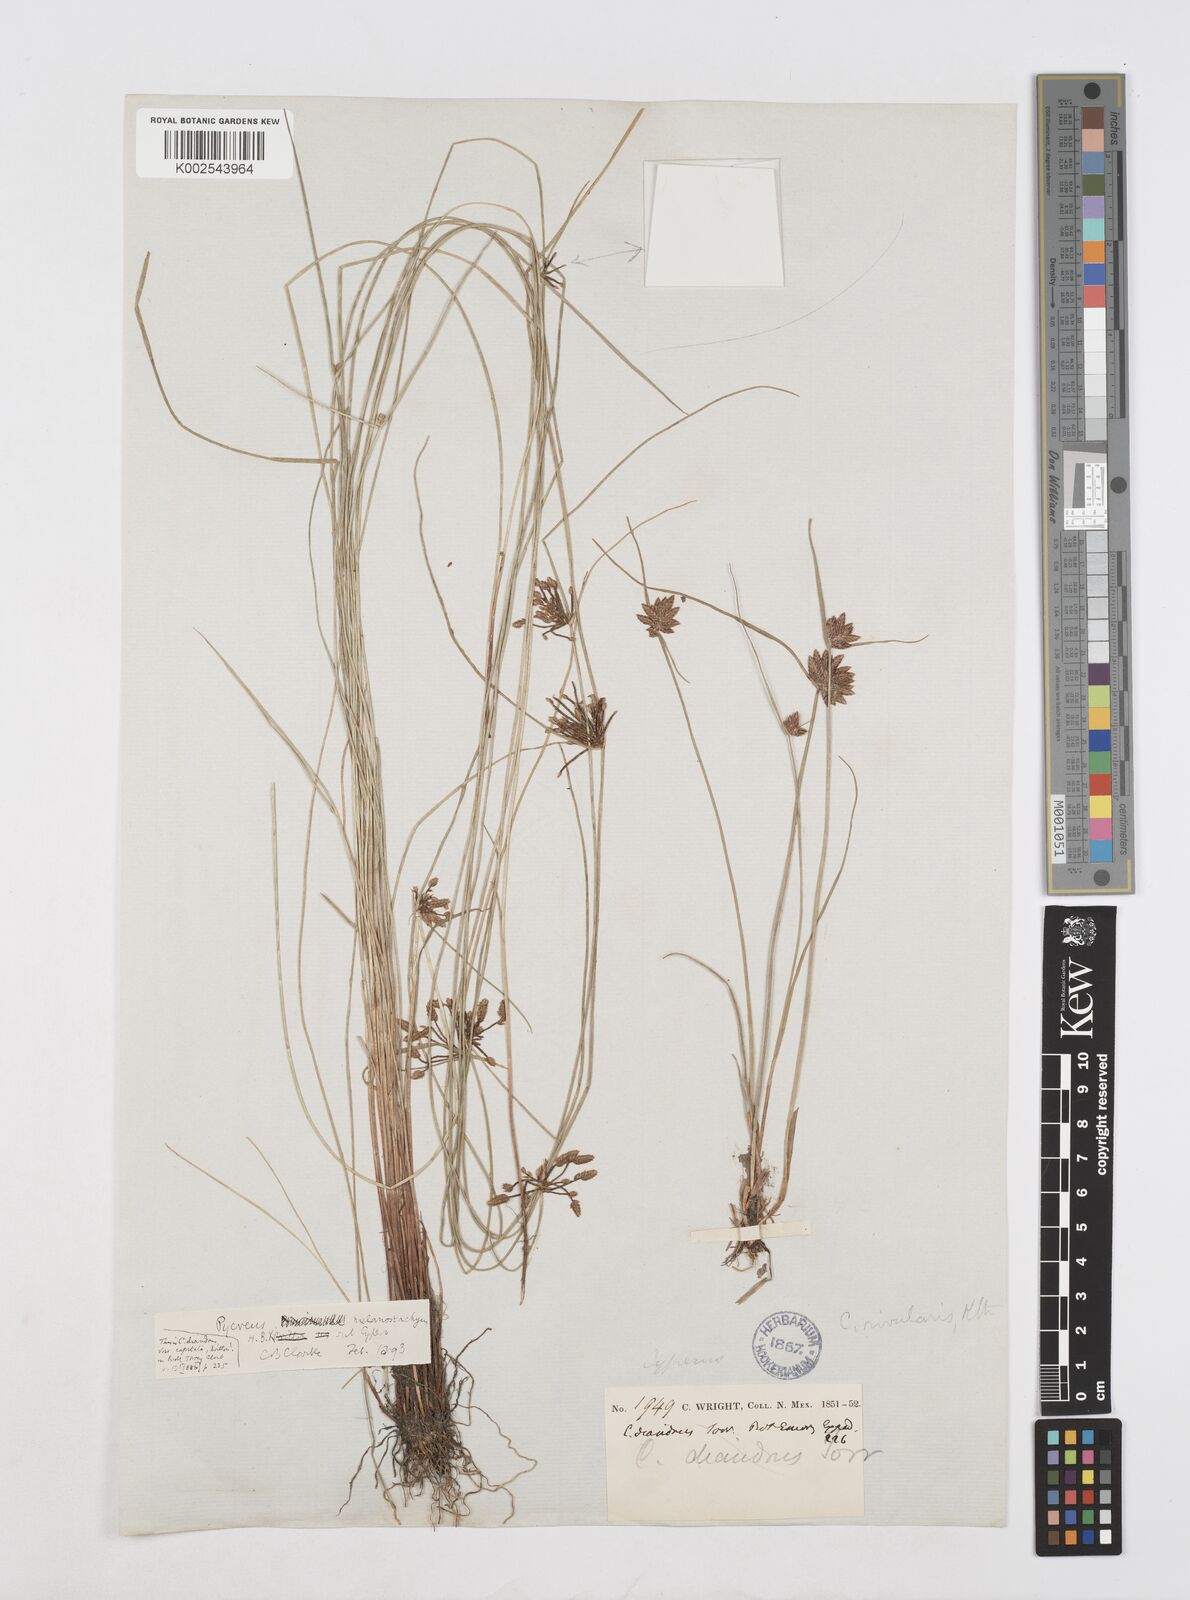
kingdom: Plantae
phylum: Tracheophyta
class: Liliopsida
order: Poales
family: Cyperaceae
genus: Cyperus
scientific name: Cyperus melanostachyus
